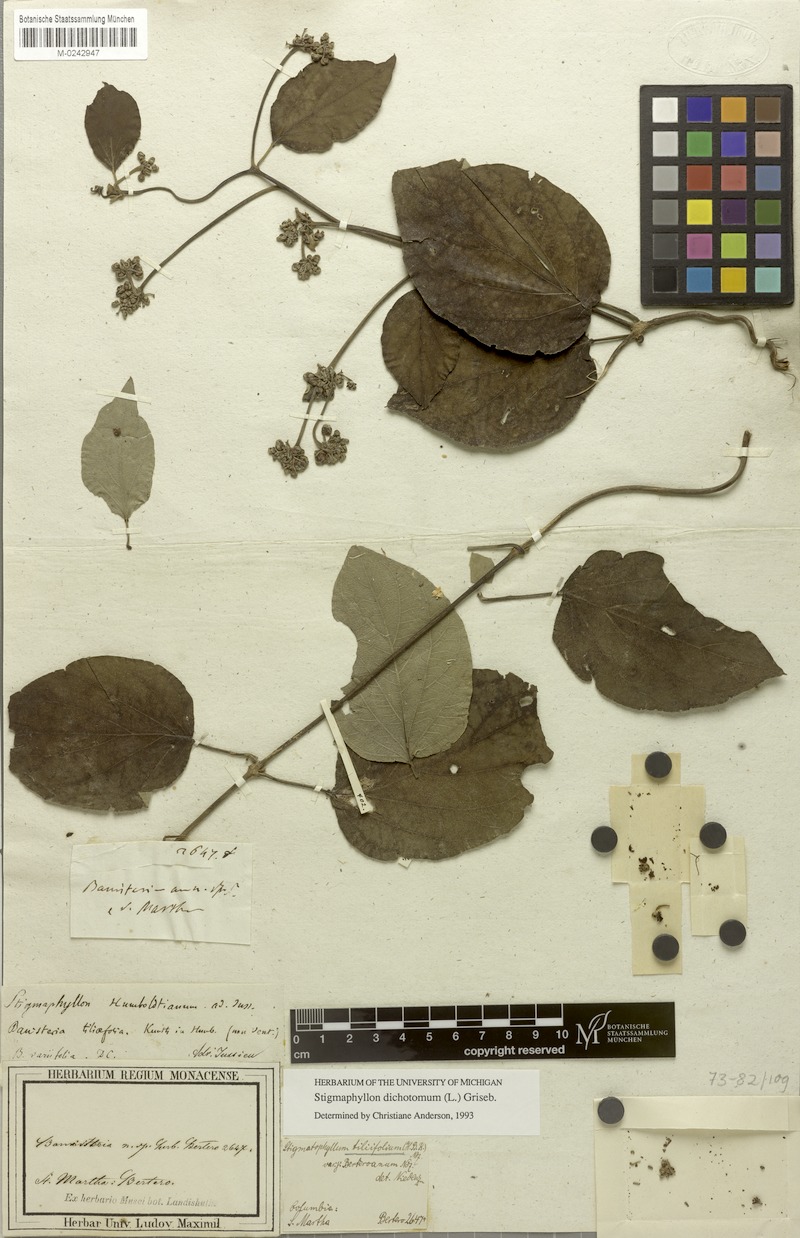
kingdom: Plantae
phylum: Tracheophyta
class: Magnoliopsida
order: Malpighiales
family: Malpighiaceae
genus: Stigmaphyllon
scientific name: Stigmaphyllon dichotomum
